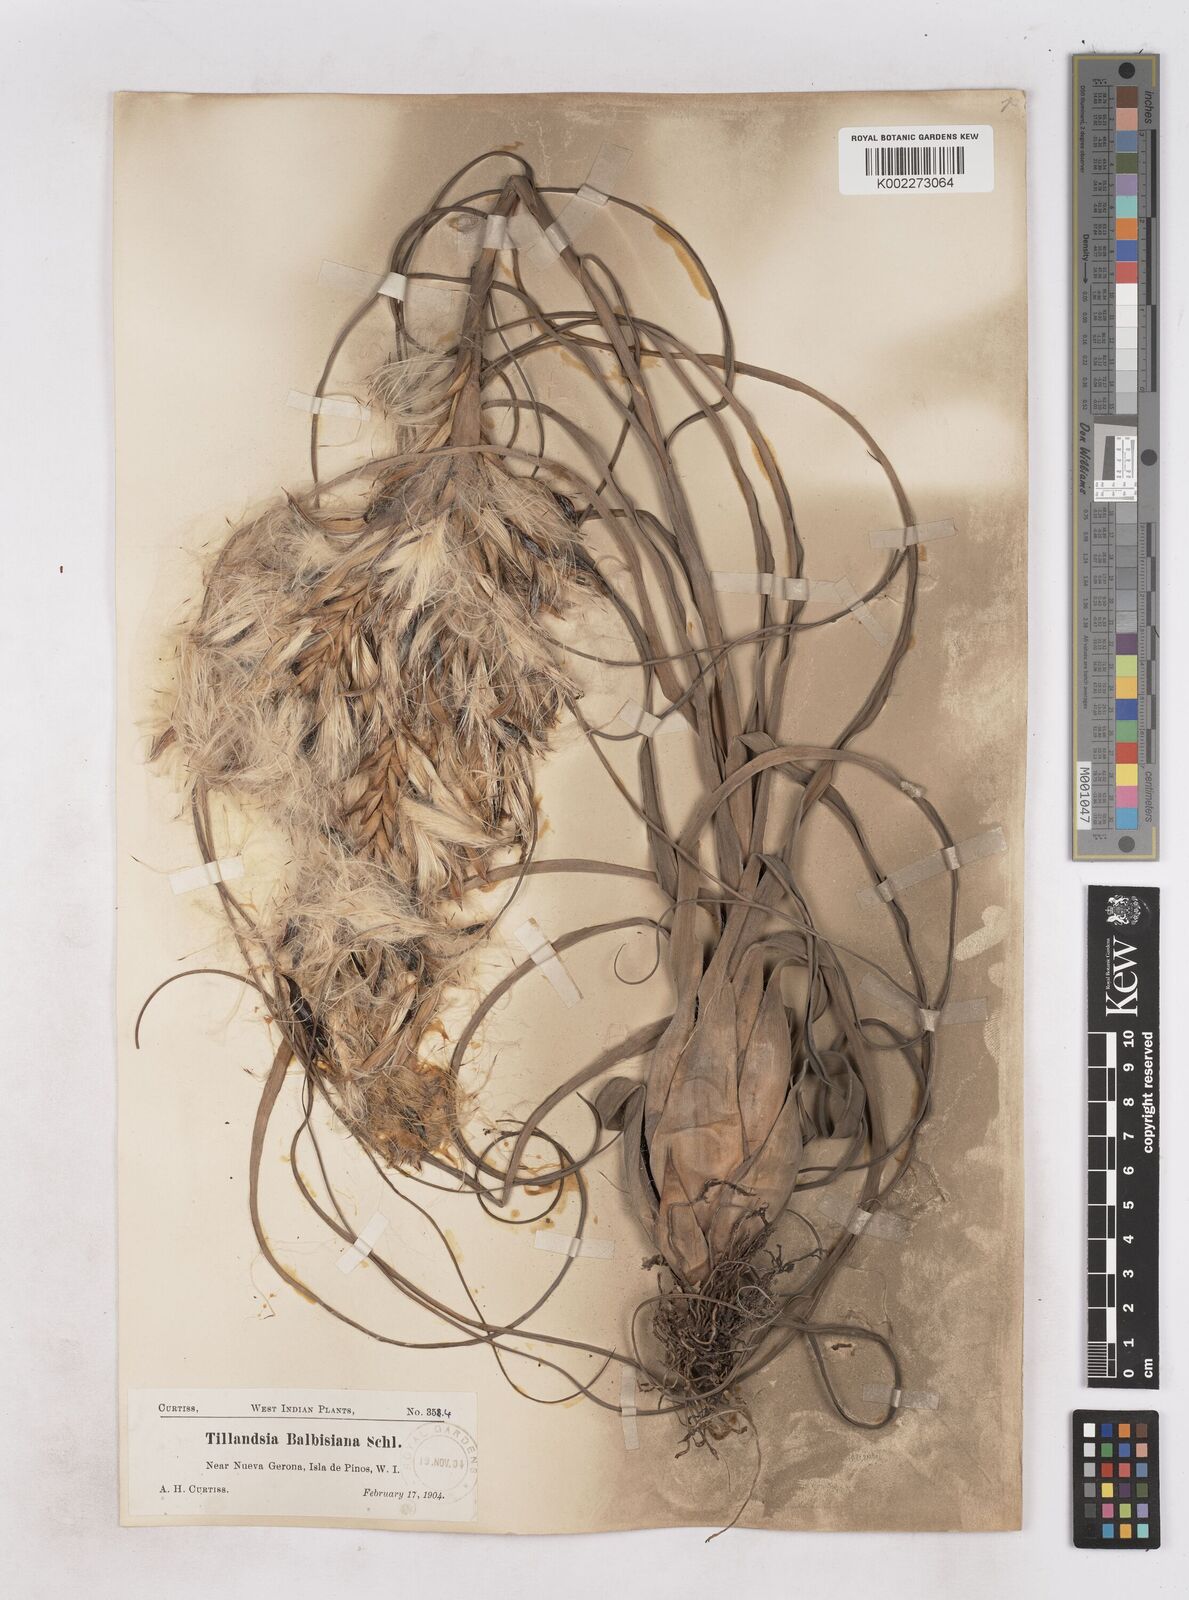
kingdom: Plantae
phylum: Tracheophyta
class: Liliopsida
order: Poales
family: Bromeliaceae
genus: Tillandsia
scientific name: Tillandsia balbisiana
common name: Northern needleleaf
